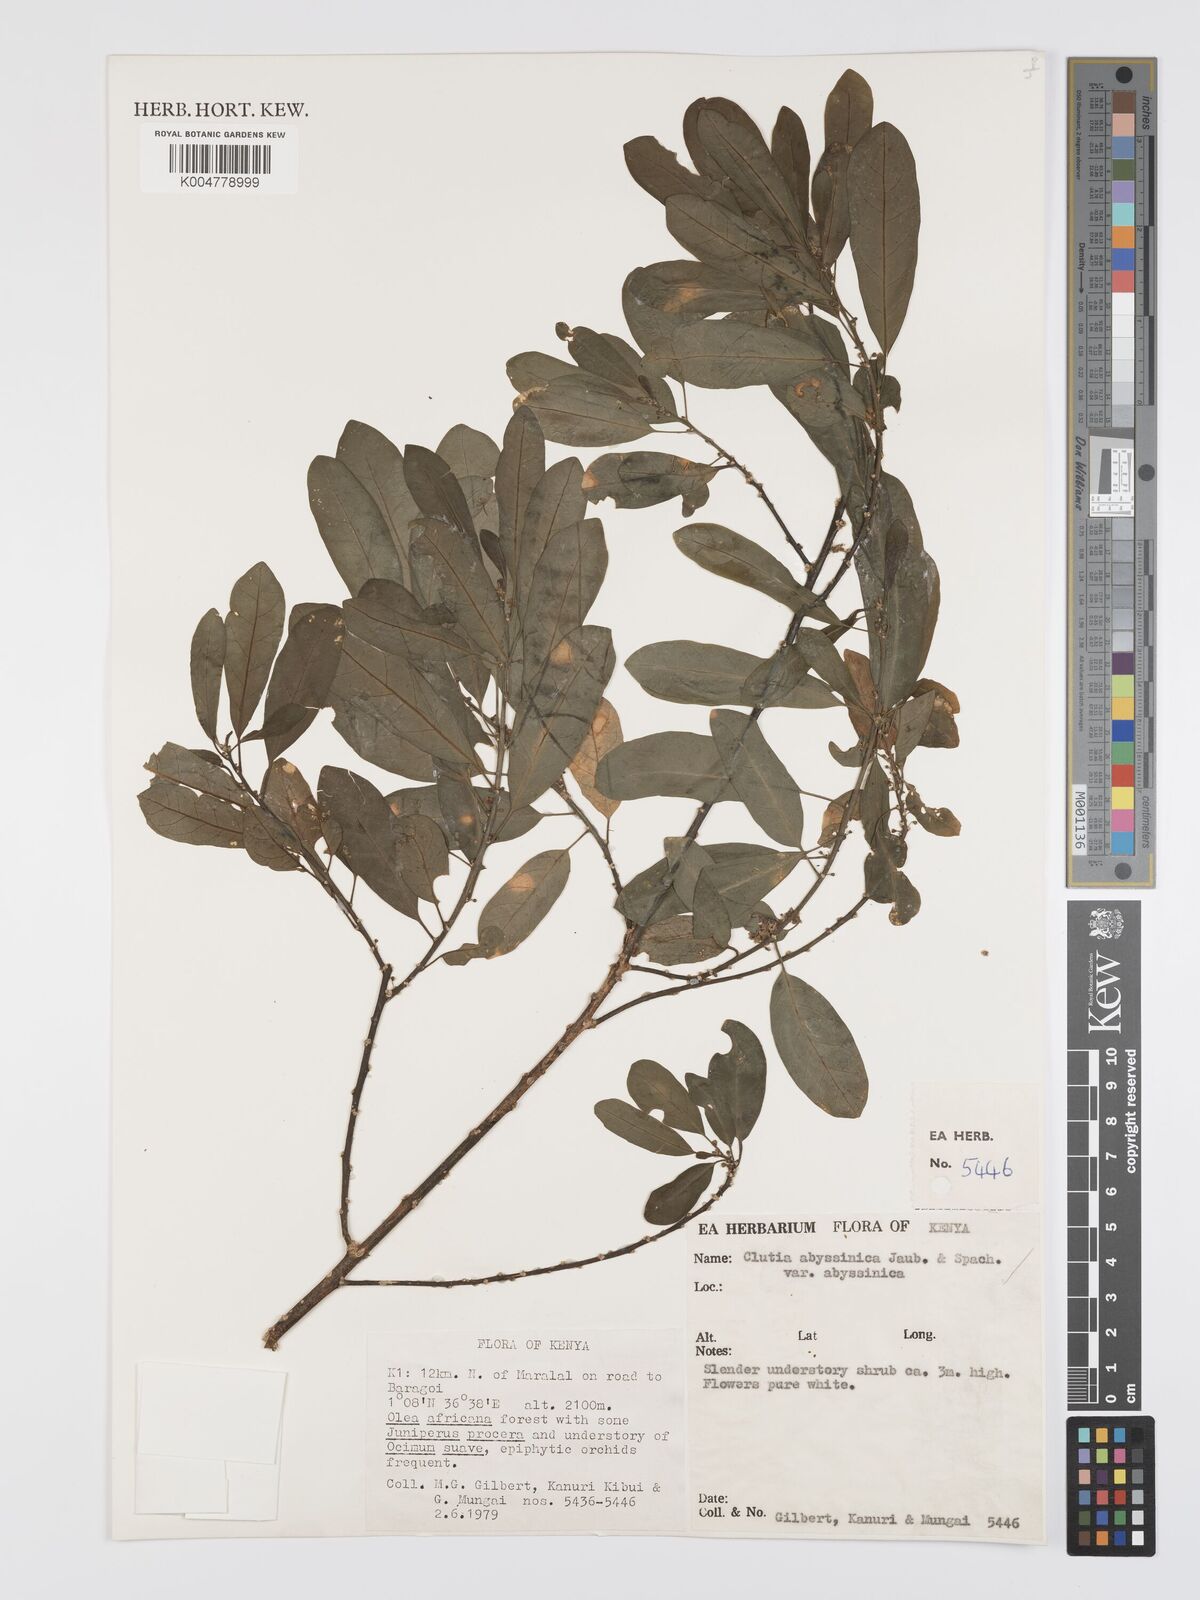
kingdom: Plantae
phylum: Tracheophyta
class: Magnoliopsida
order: Malpighiales
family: Peraceae
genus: Clutia
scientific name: Clutia abyssinica
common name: Large lightning bush
